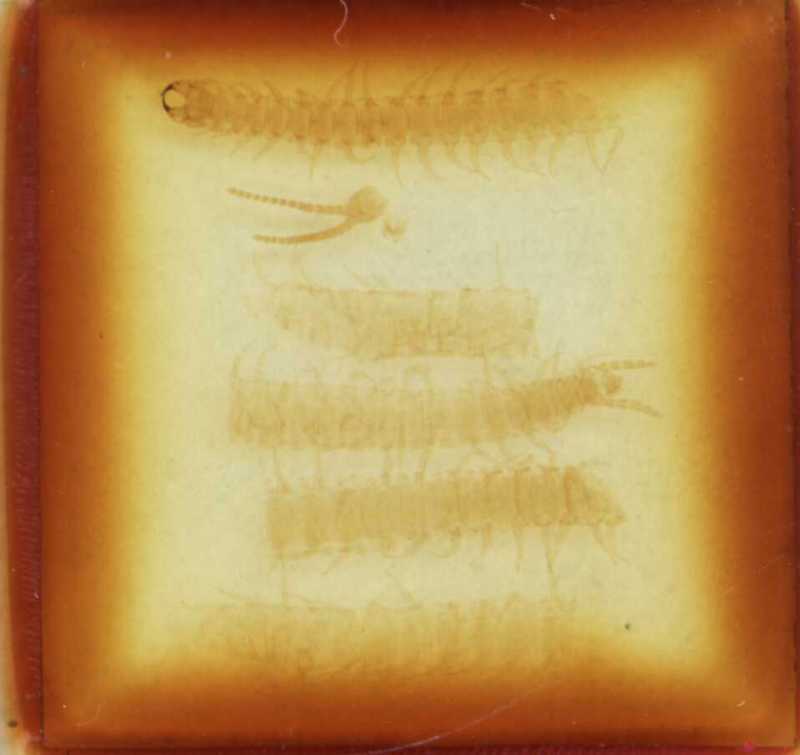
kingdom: Animalia
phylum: Arthropoda
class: Chilopoda
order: Geophilomorpha
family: Geophilidae
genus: Geophilus
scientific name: Geophilus carpophagus
